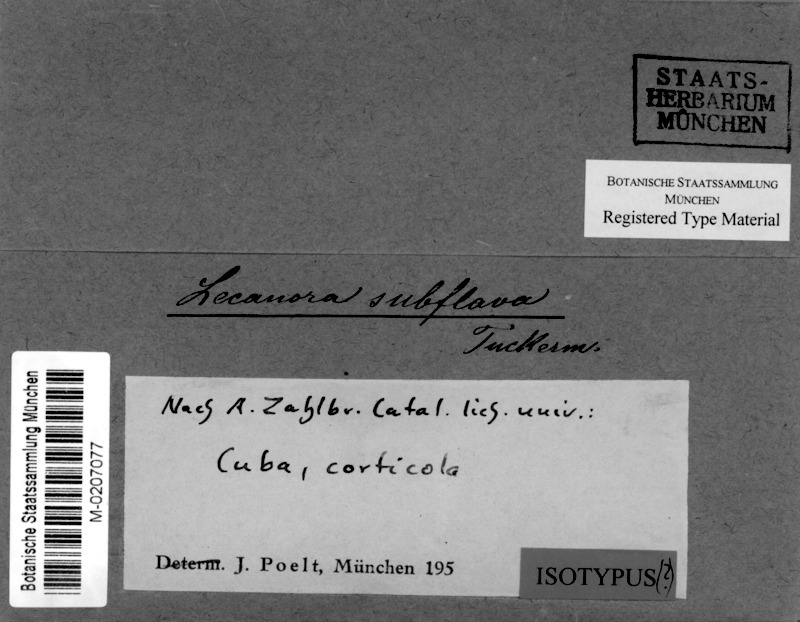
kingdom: Fungi
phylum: Ascomycota
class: Lecanoromycetes
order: Lecanorales
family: Lecanoraceae
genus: Lecanora
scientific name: Lecanora subflava
